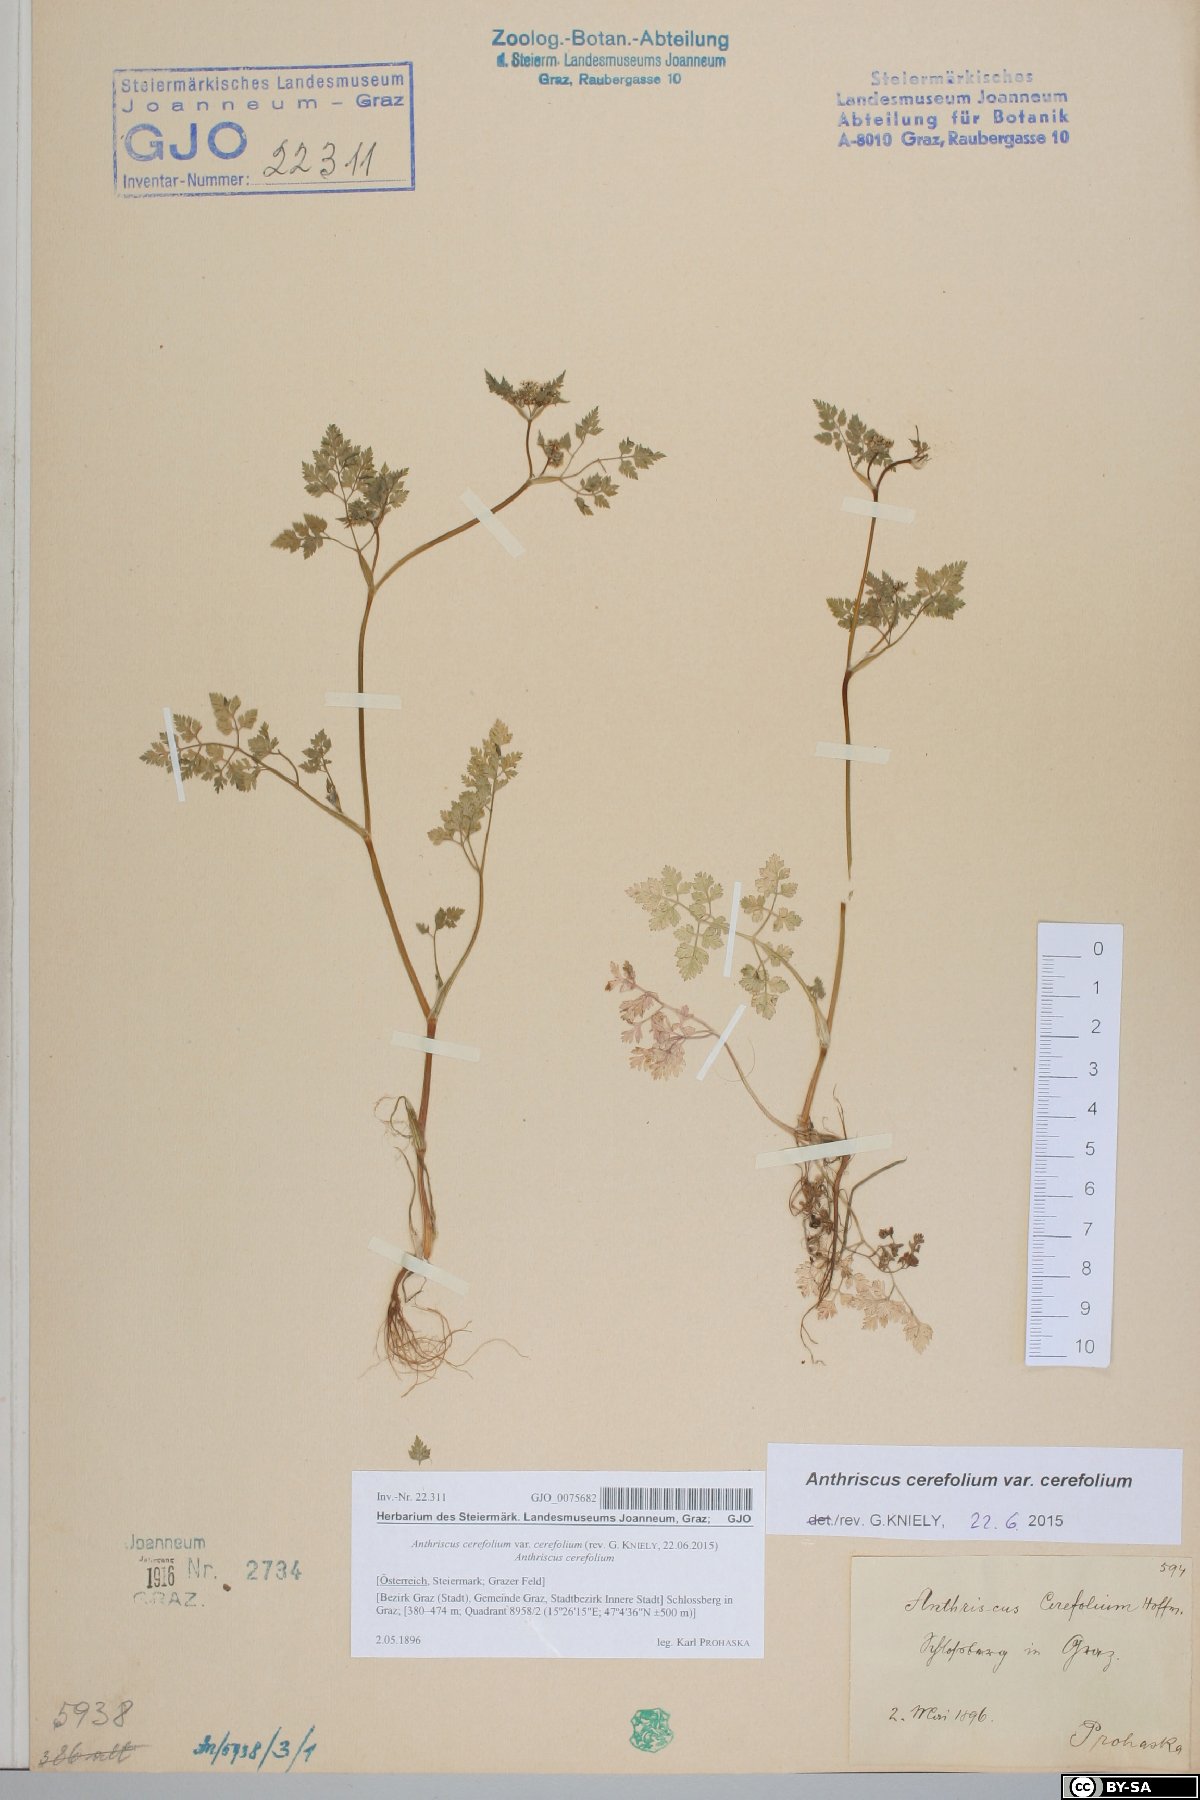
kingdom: Plantae
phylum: Tracheophyta
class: Magnoliopsida
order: Apiales
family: Apiaceae
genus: Anthriscus
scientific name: Anthriscus cerefolium
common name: Garden chervil
